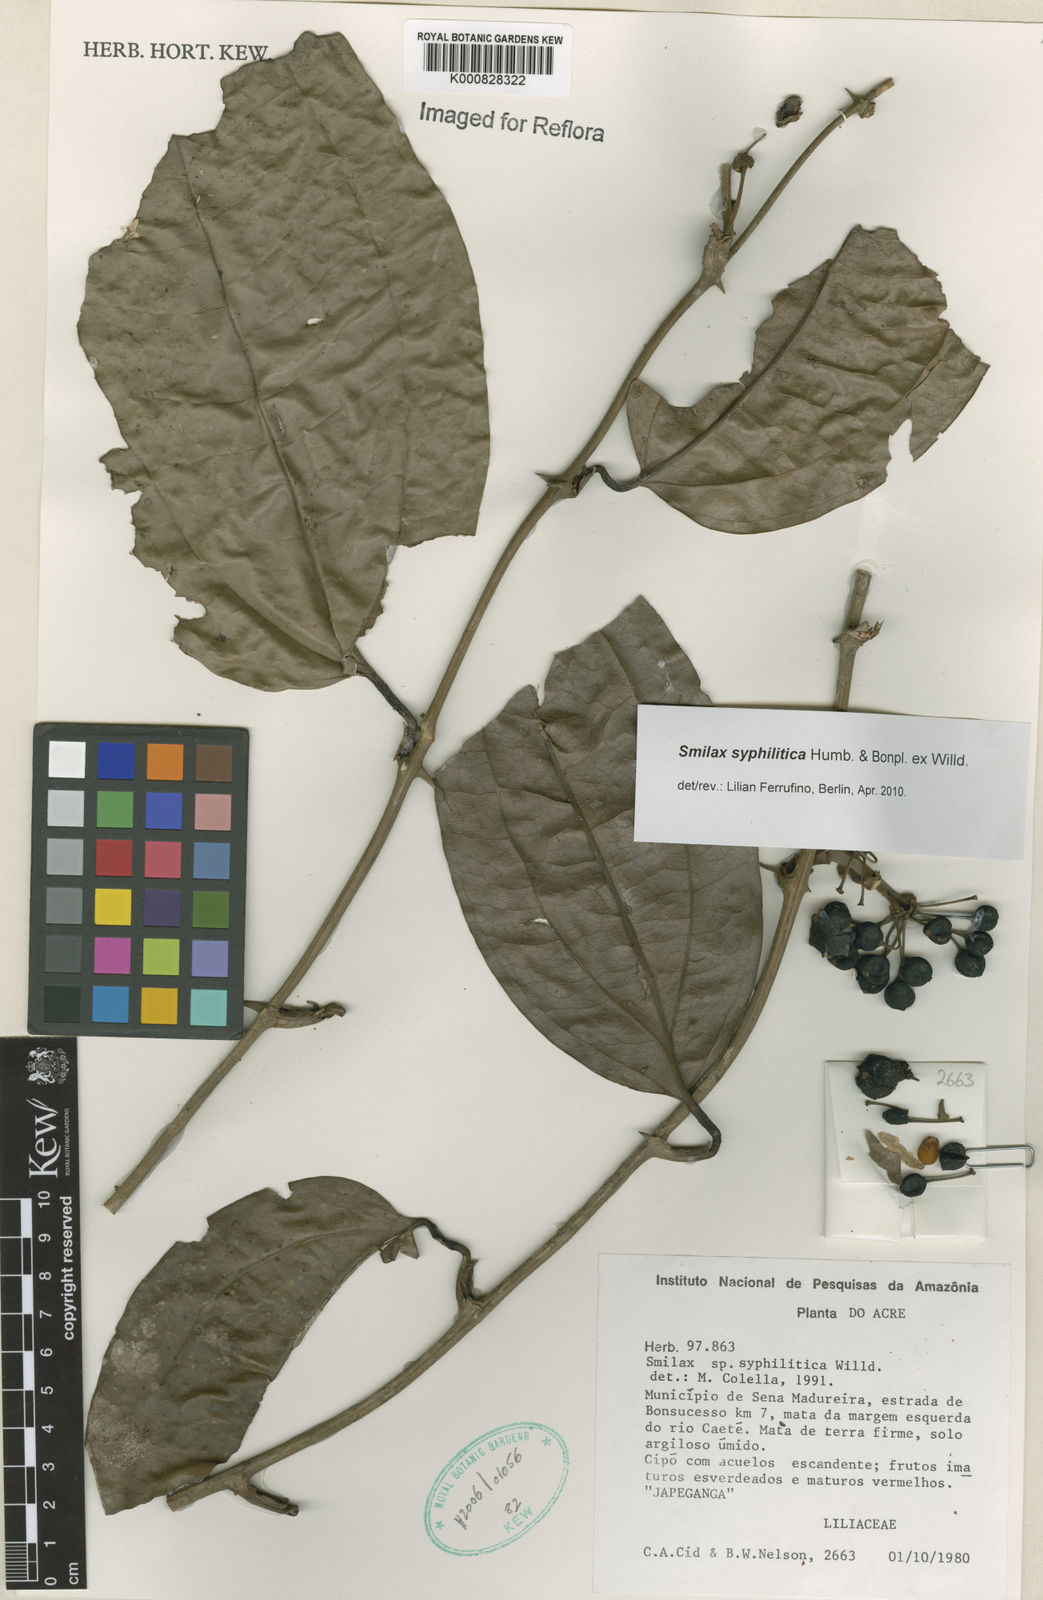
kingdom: Plantae
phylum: Tracheophyta
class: Liliopsida
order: Liliales
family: Smilacaceae
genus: Smilax
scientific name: Smilax siphilitica
